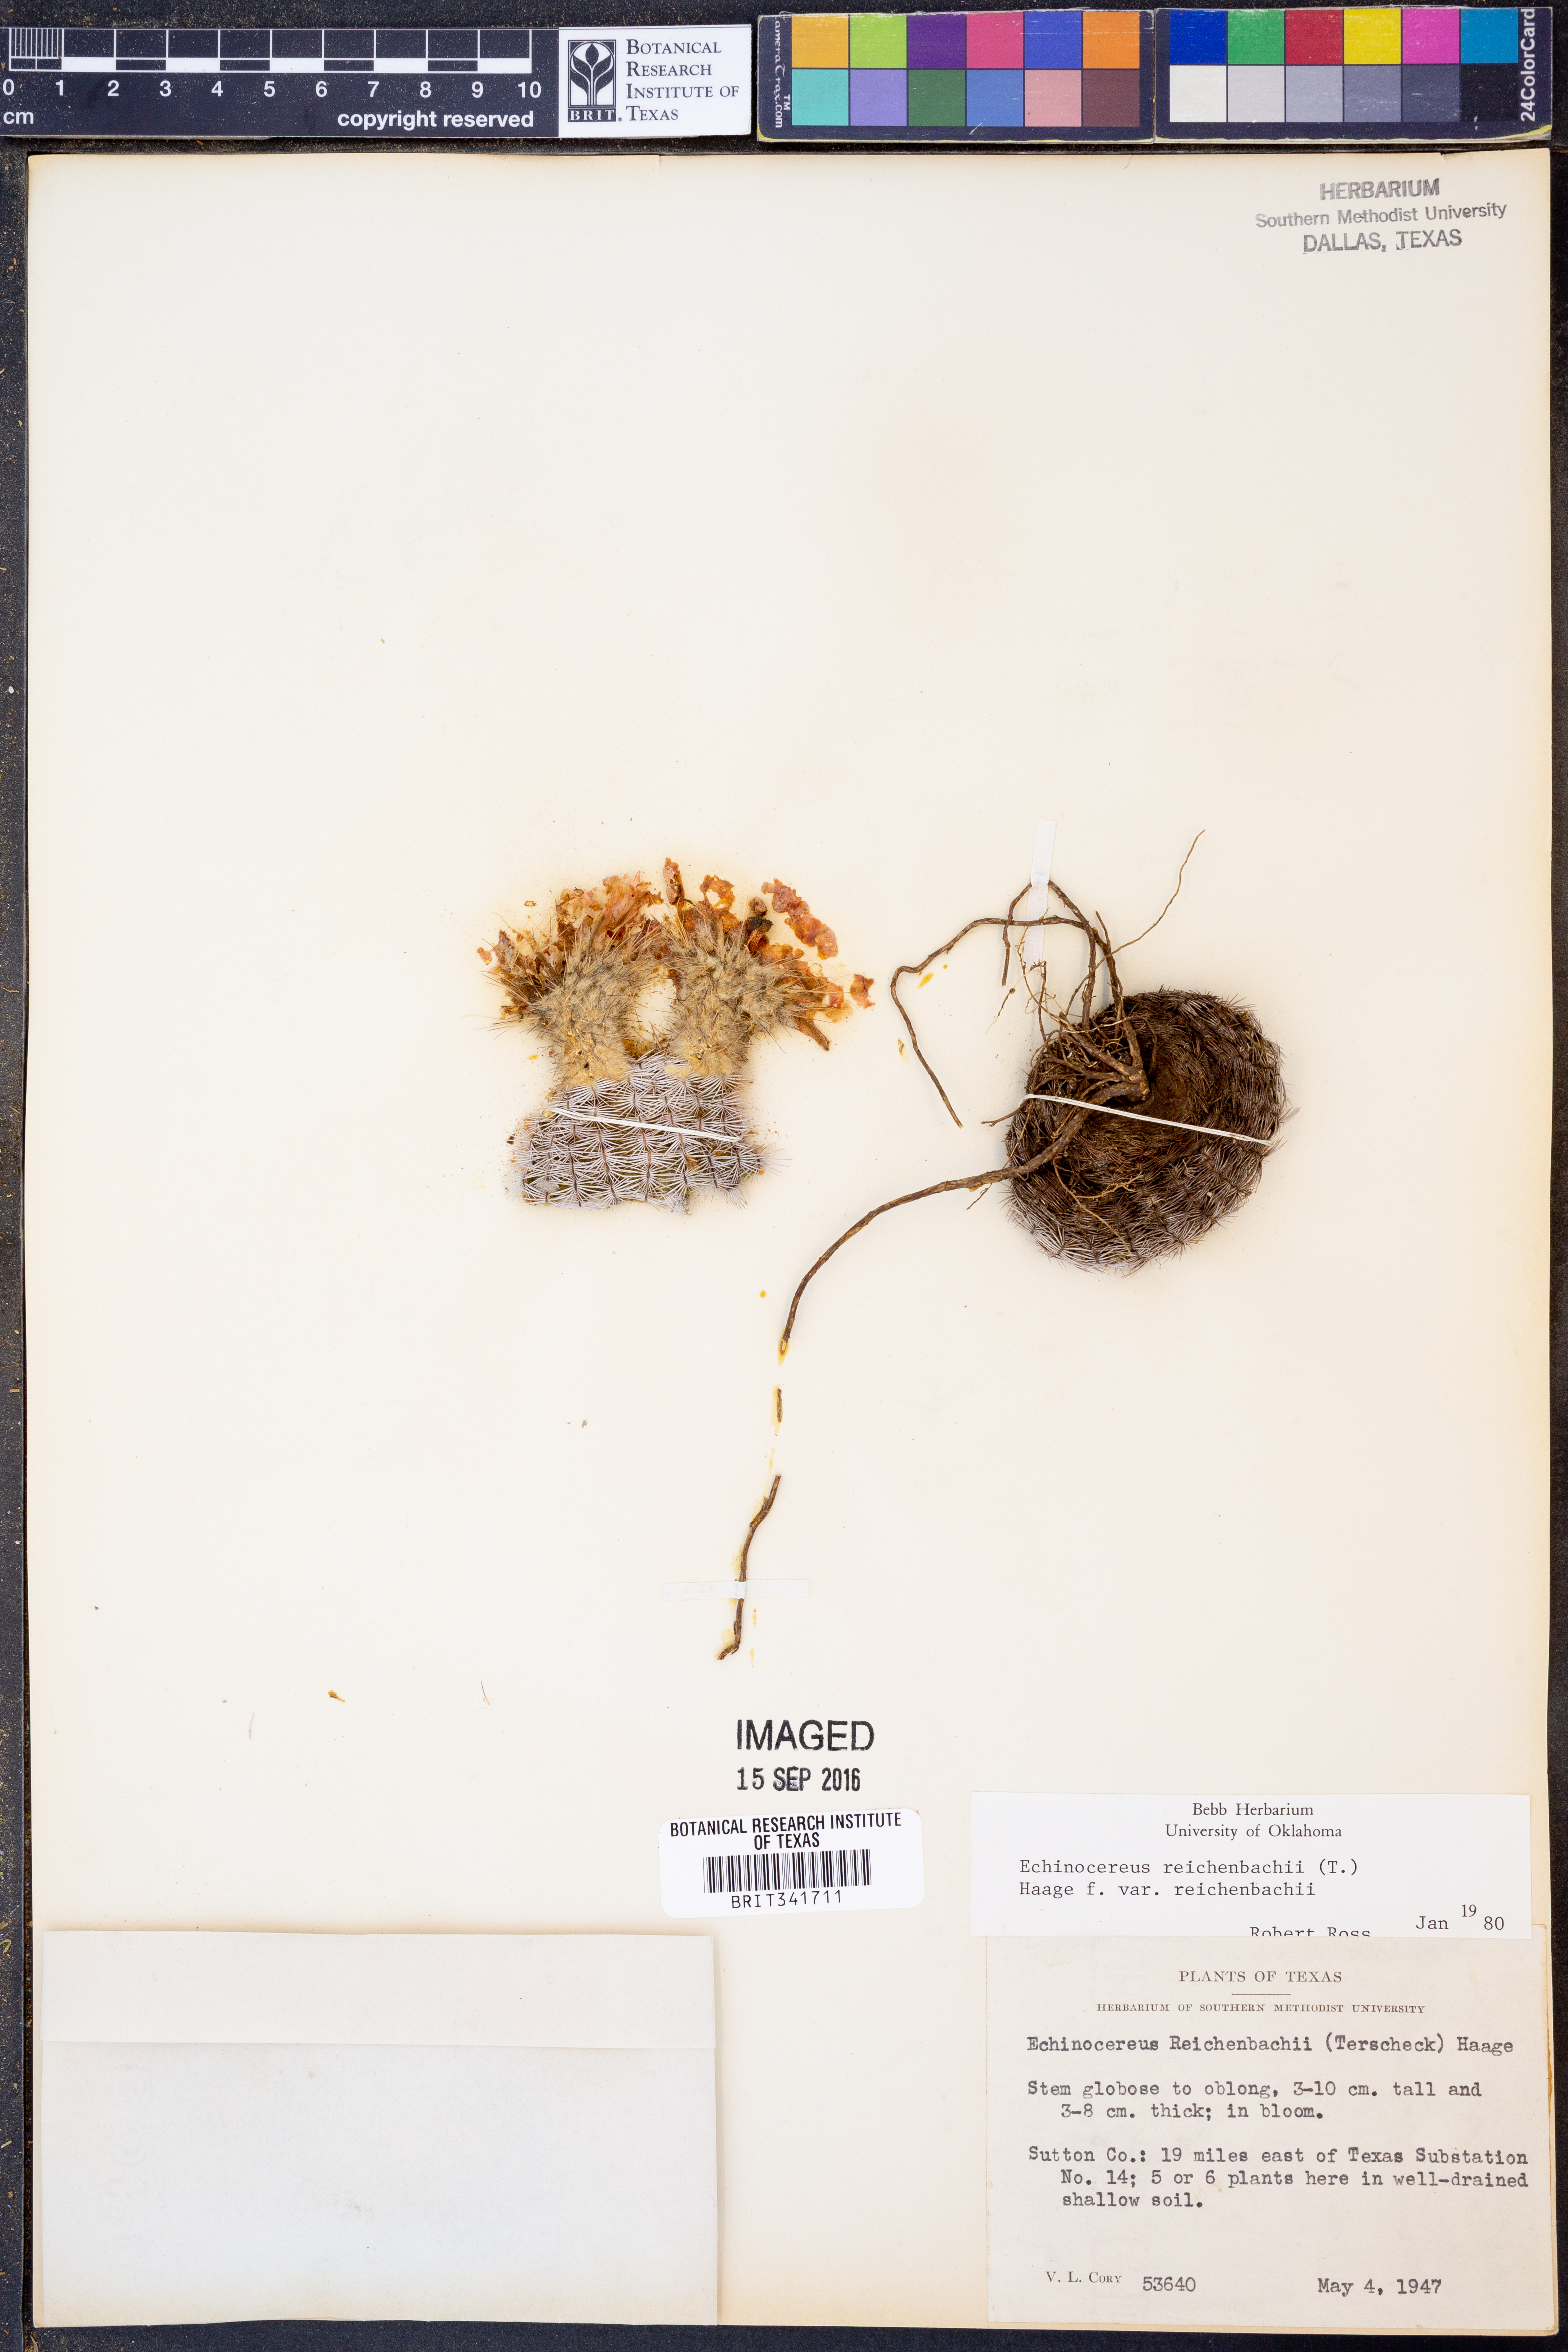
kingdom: Plantae
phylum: Tracheophyta
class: Magnoliopsida
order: Caryophyllales
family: Cactaceae
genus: Echinocereus
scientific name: Echinocereus reichenbachii
